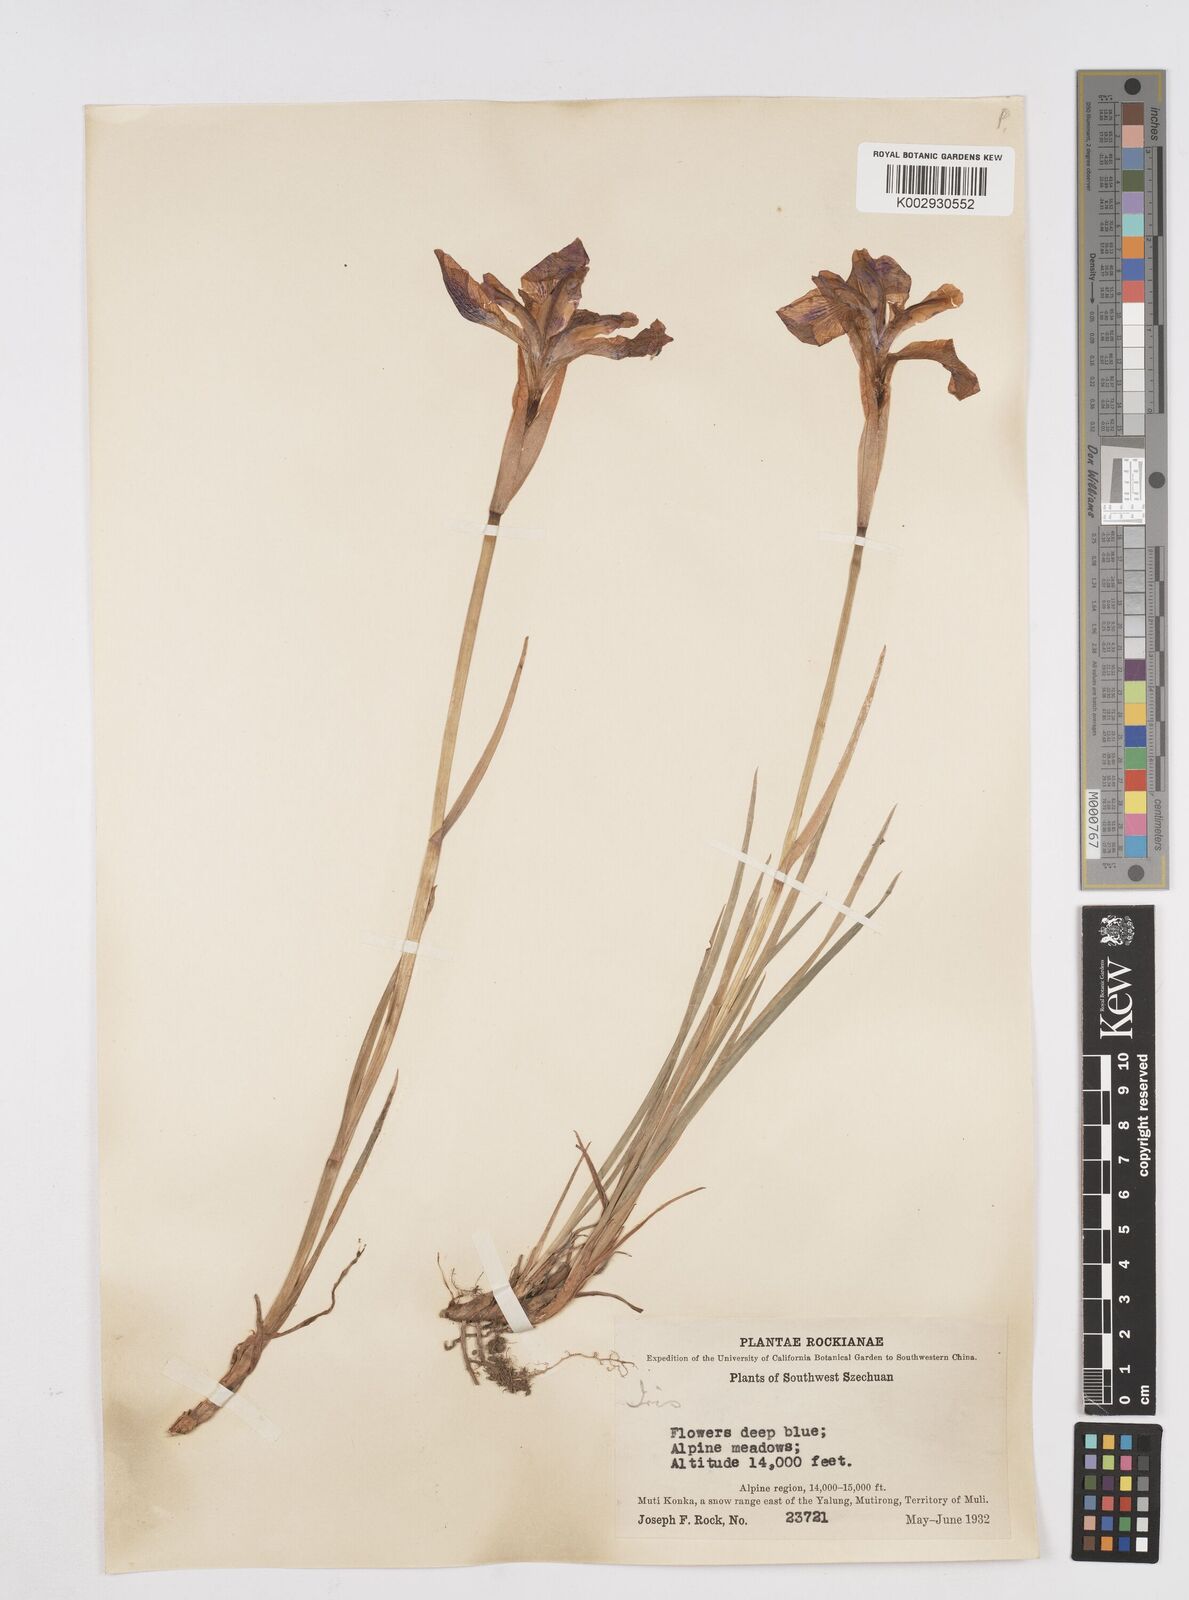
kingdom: Plantae
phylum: Tracheophyta
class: Liliopsida
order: Asparagales
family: Iridaceae
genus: Iris
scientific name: Iris bulleyana
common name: Southwest iris
